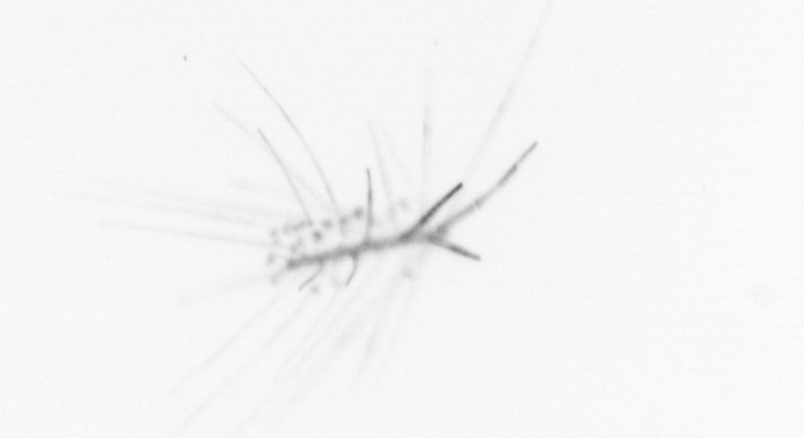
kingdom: Chromista
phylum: Ochrophyta
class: Bacillariophyceae
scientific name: Bacillariophyceae
